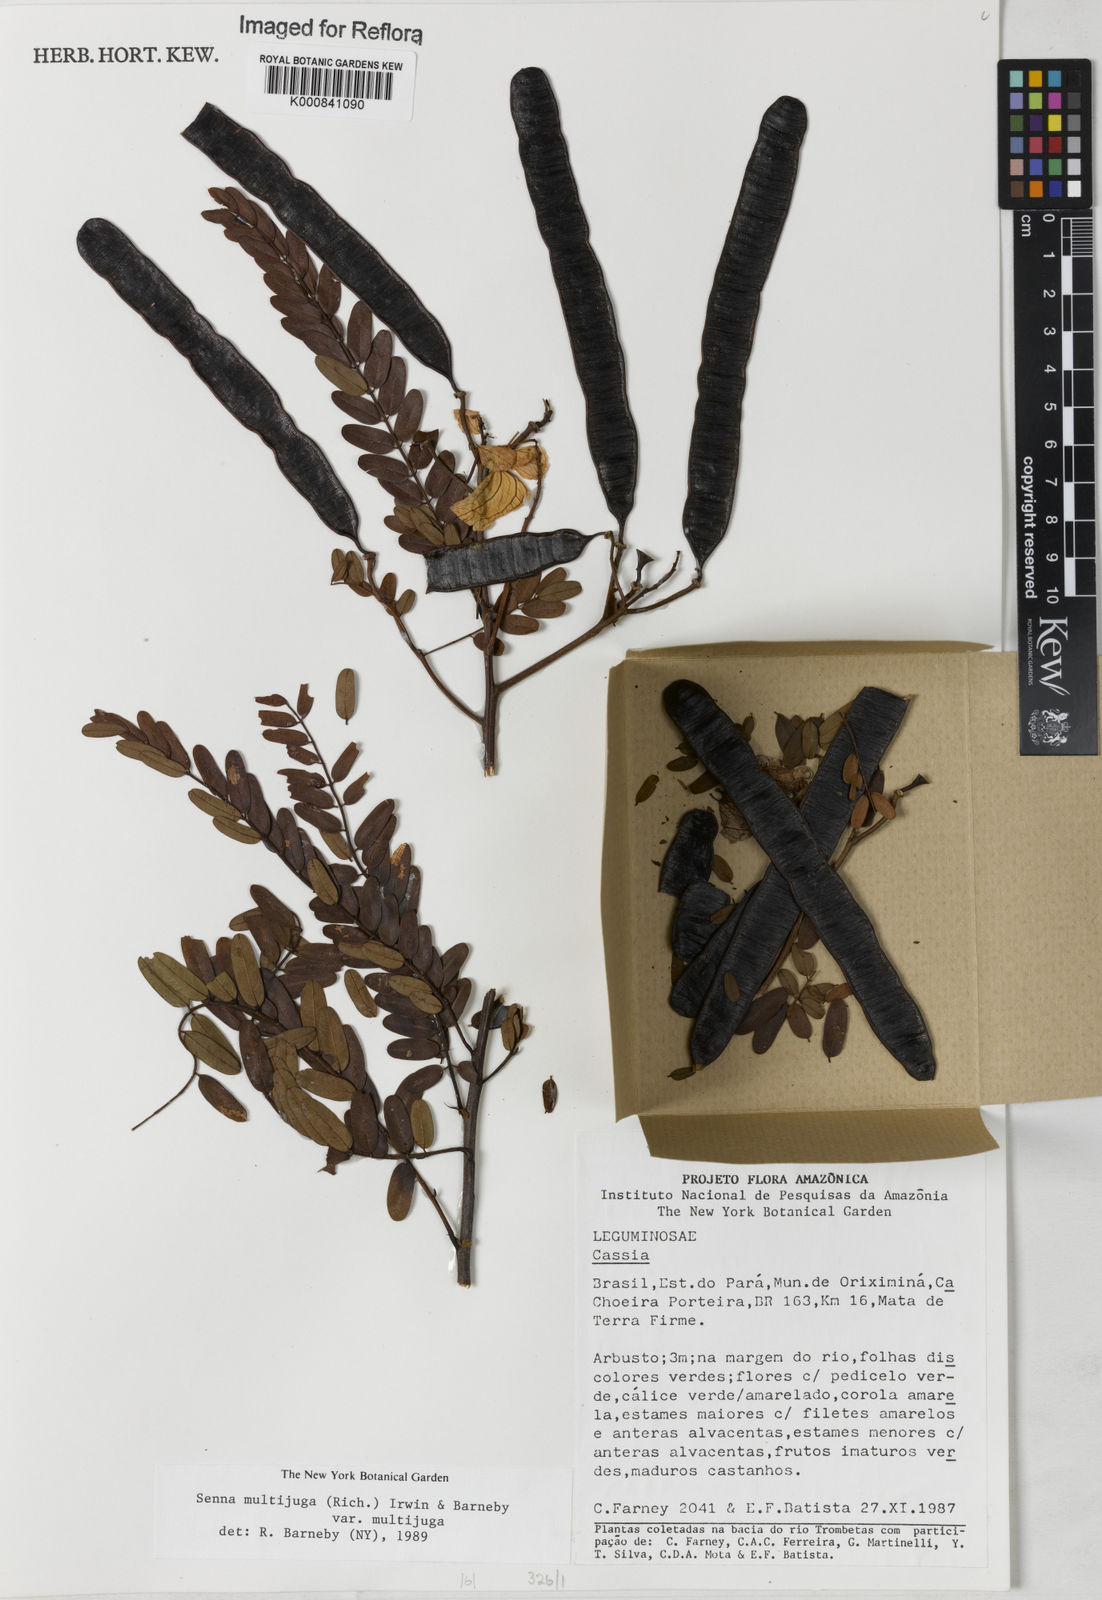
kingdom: Plantae
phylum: Tracheophyta
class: Magnoliopsida
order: Fabales
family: Fabaceae
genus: Senna
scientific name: Senna multijuga
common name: False sicklepod
